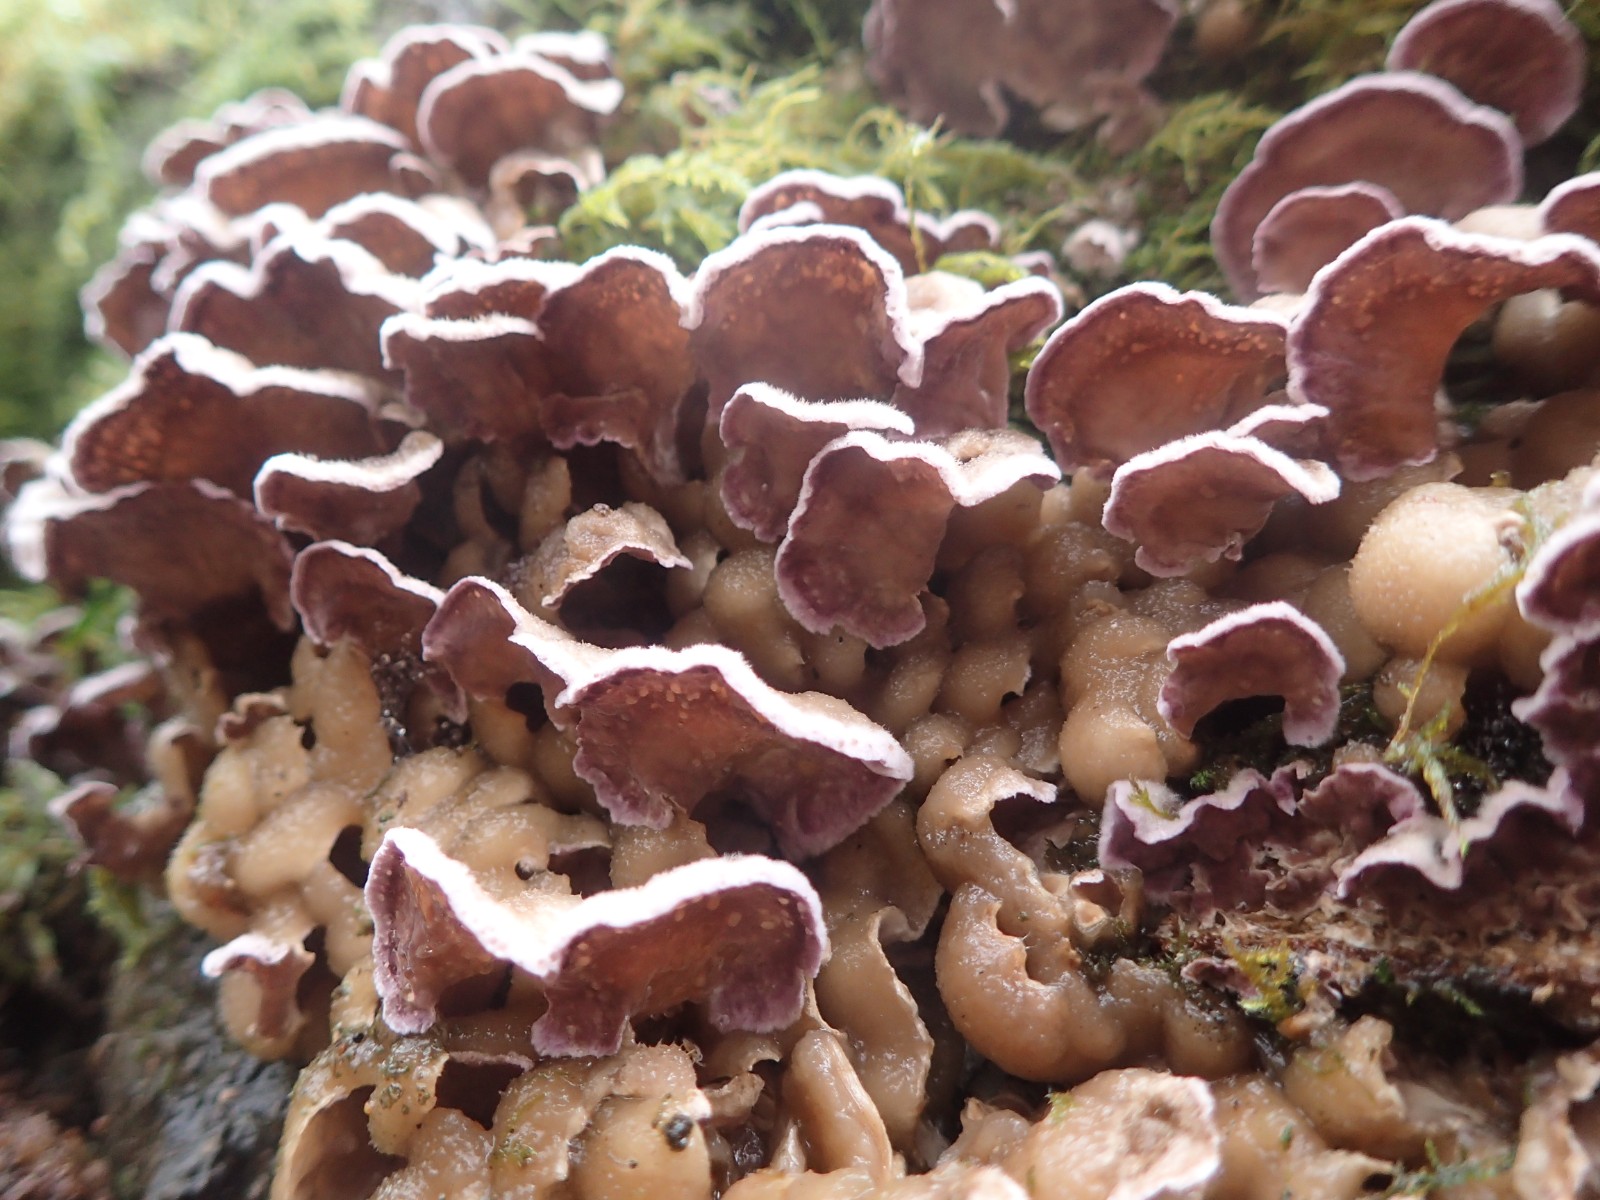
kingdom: Fungi
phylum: Basidiomycota
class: Agaricomycetes
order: Agaricales
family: Cyphellaceae
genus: Chondrostereum
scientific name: Chondrostereum purpureum
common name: purpurlædersvamp
